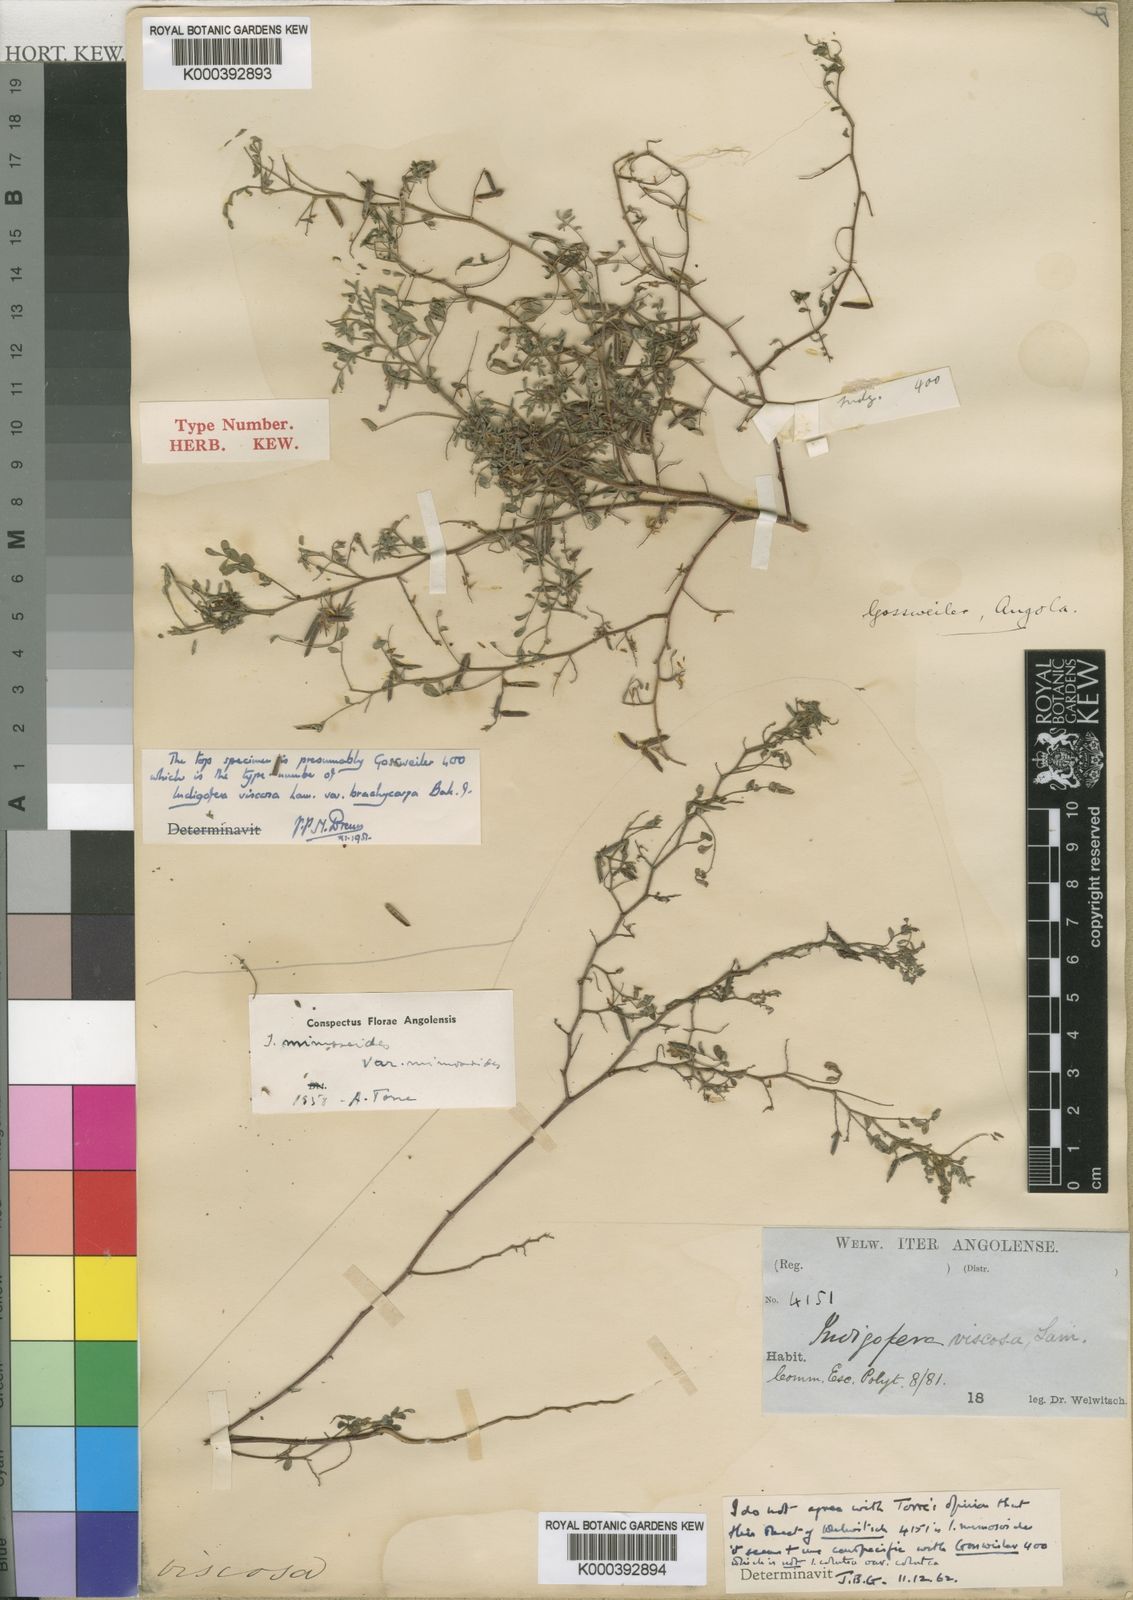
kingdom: Plantae
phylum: Tracheophyta
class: Magnoliopsida
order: Fabales
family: Fabaceae
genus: Indigofera
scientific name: Indigofera colutea
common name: Rusty indigo
